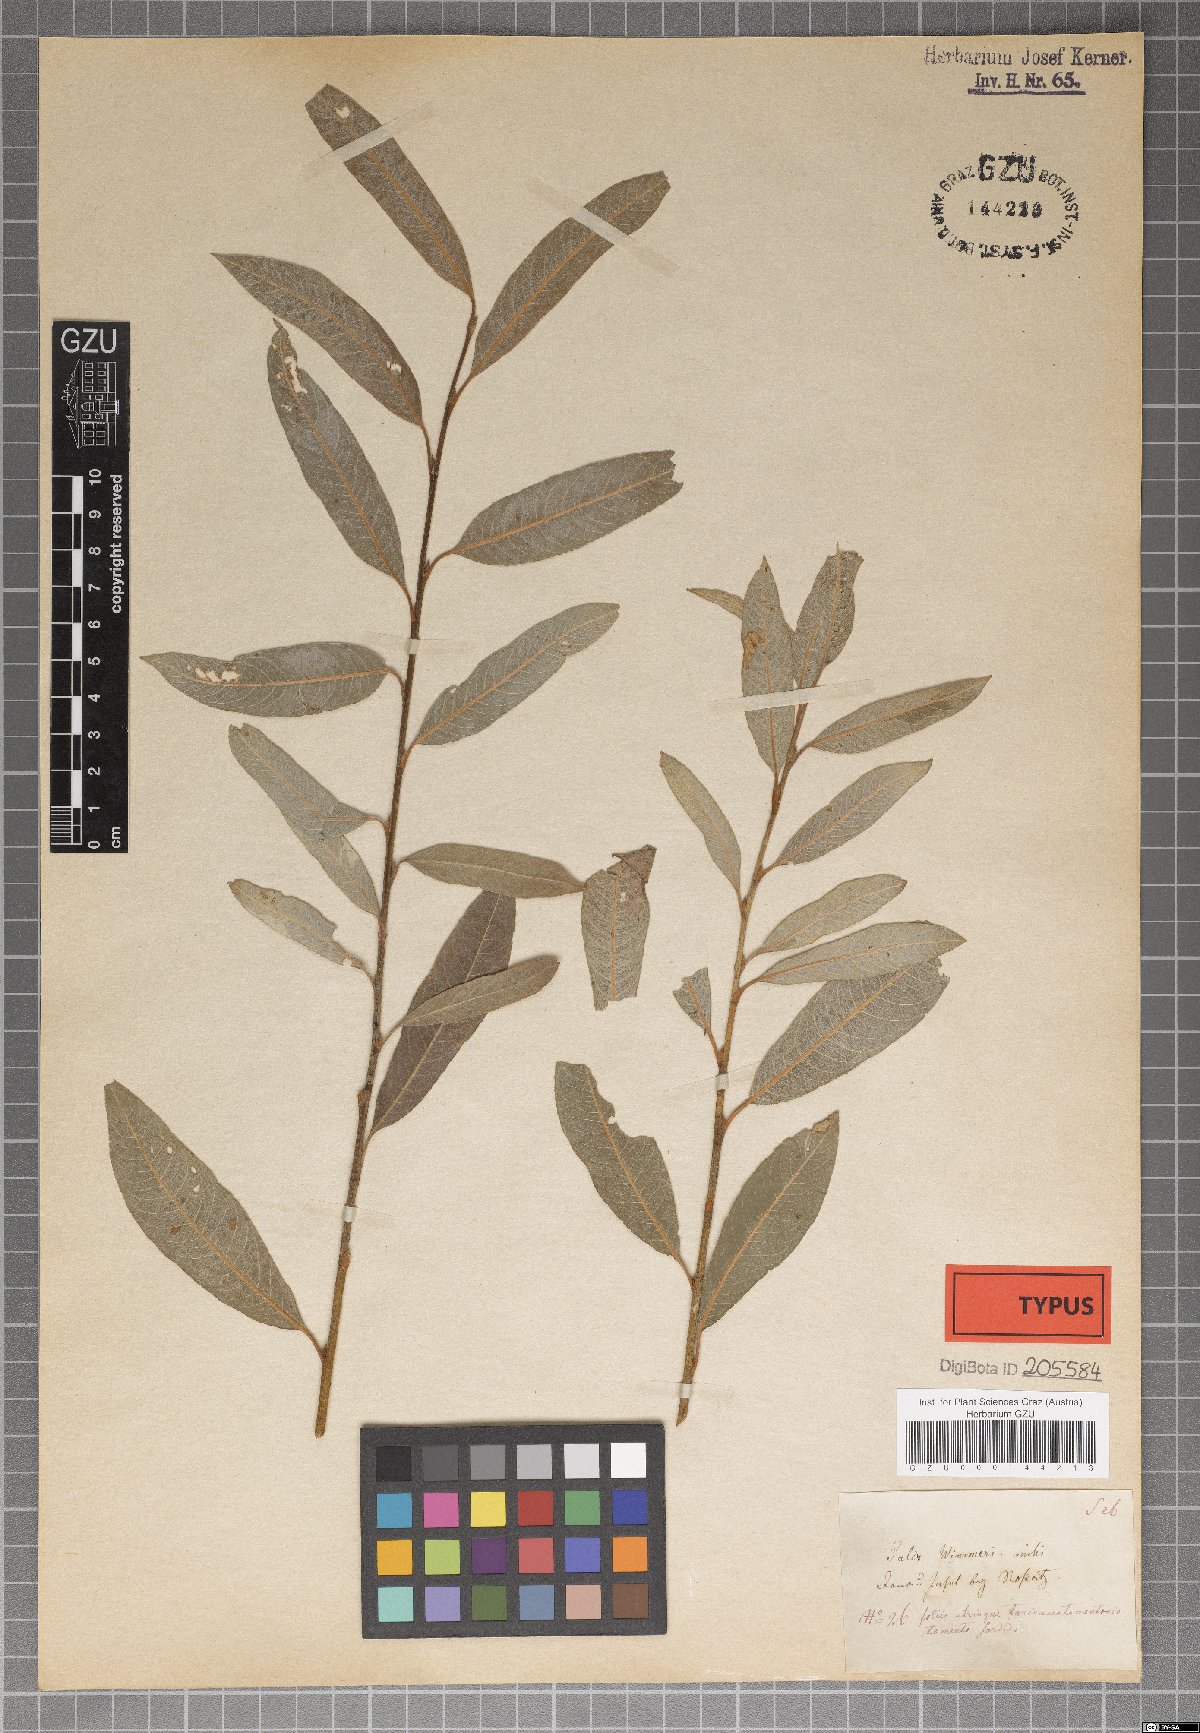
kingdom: Plantae
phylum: Tracheophyta
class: Magnoliopsida
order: Malpighiales
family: Salicaceae
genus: Salix
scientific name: Salix reuteri
